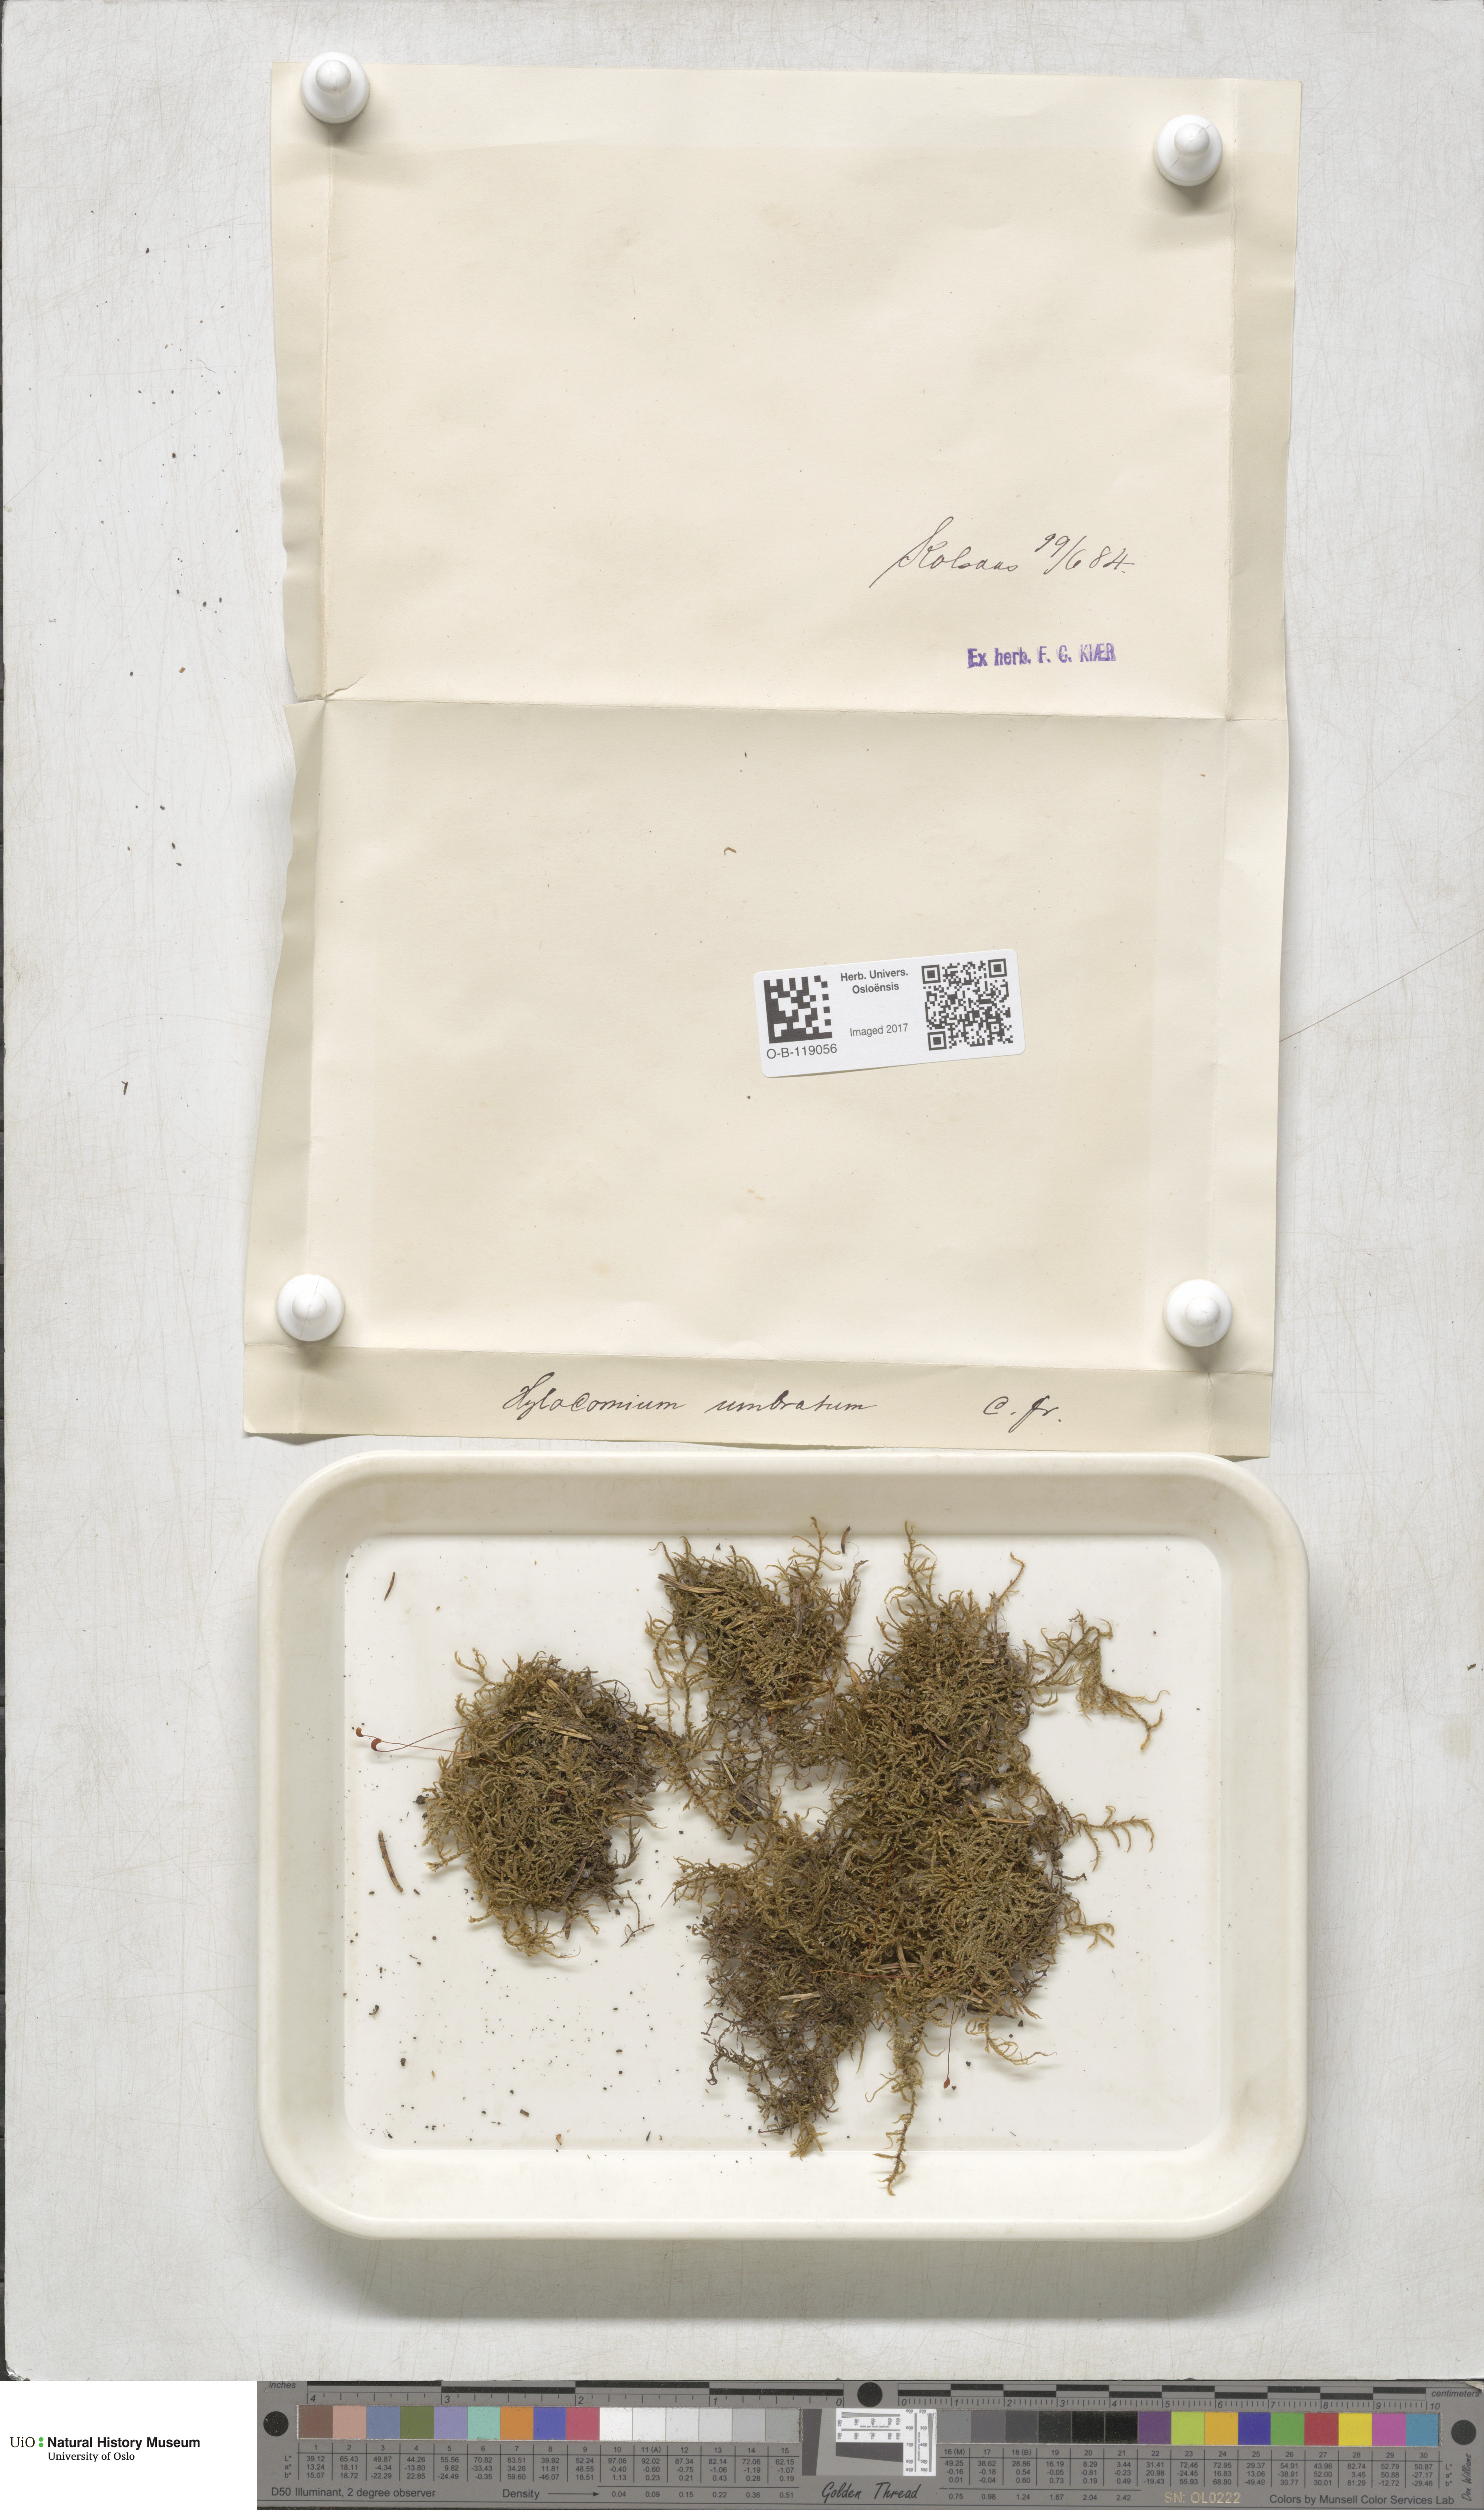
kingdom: Plantae
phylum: Bryophyta
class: Bryopsida
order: Hypnales
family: Hylocomiaceae
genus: Hylocomiastrum
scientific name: Hylocomiastrum umbratum
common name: Shaded woods moss
